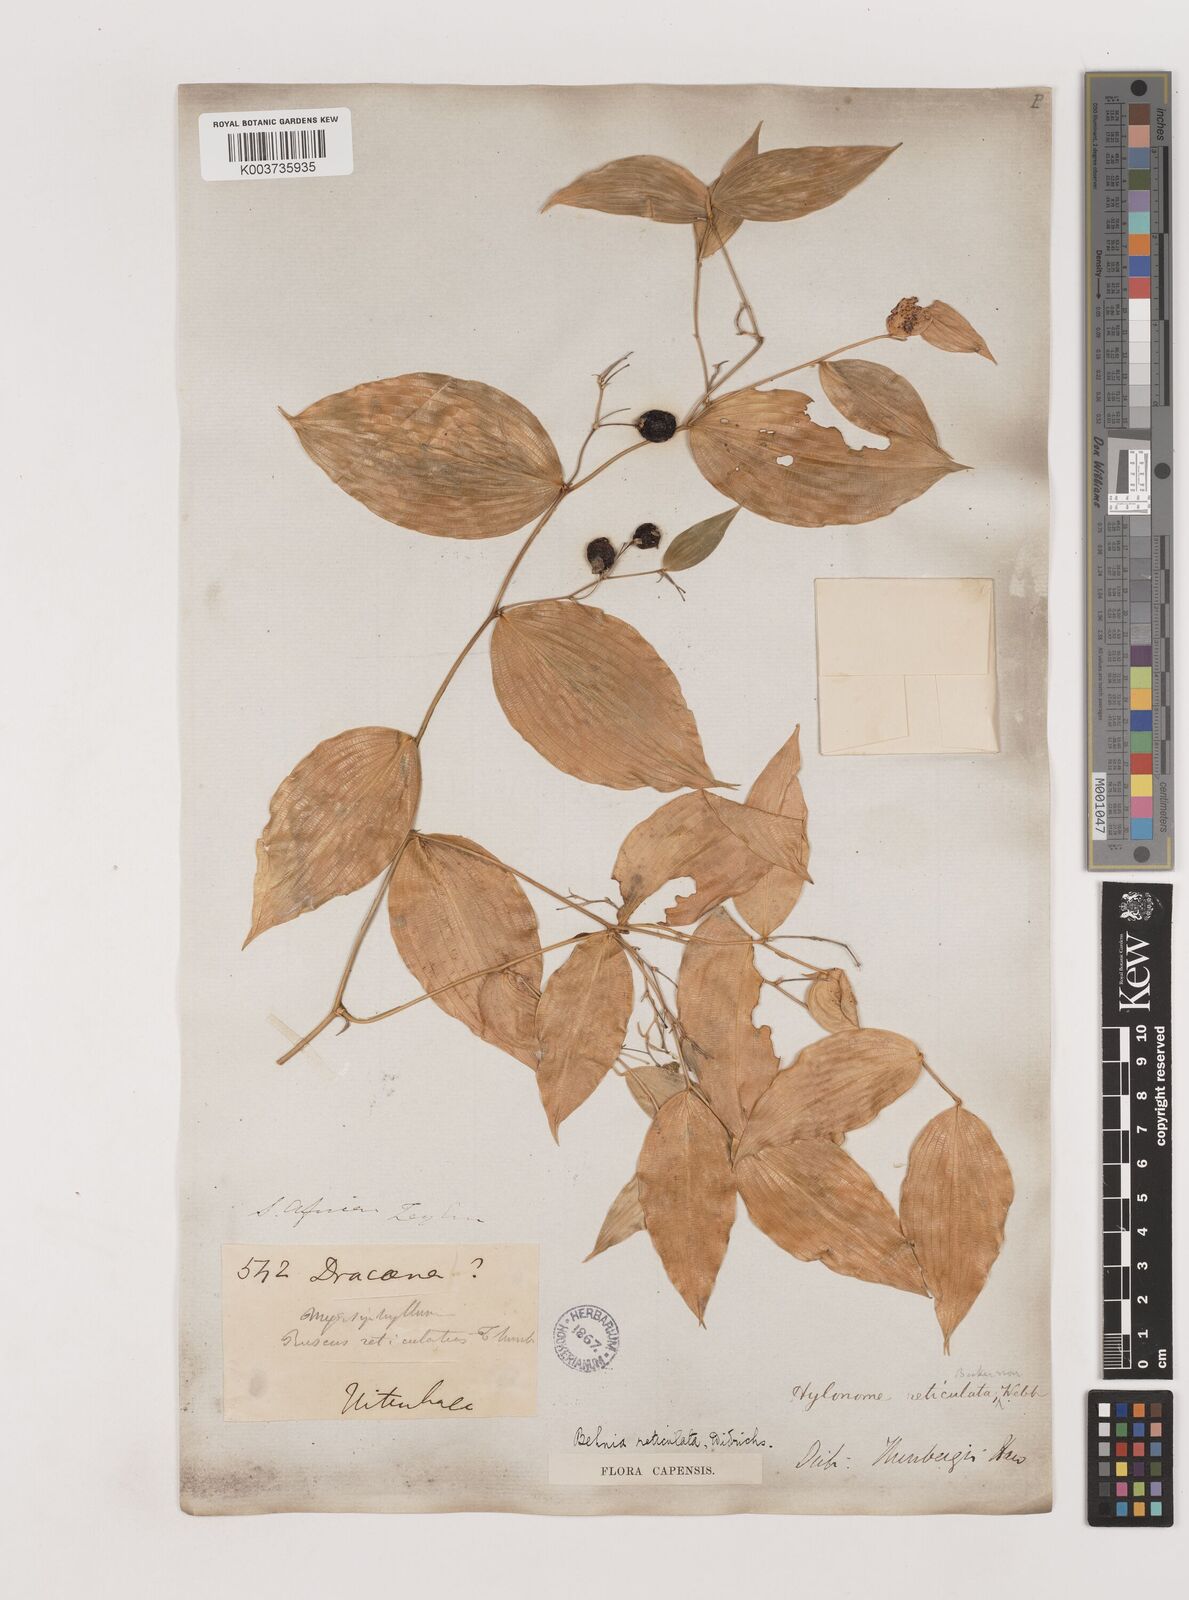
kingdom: Plantae
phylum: Tracheophyta
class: Liliopsida
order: Asparagales
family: Asparagaceae
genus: Behnia
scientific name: Behnia reticulata
